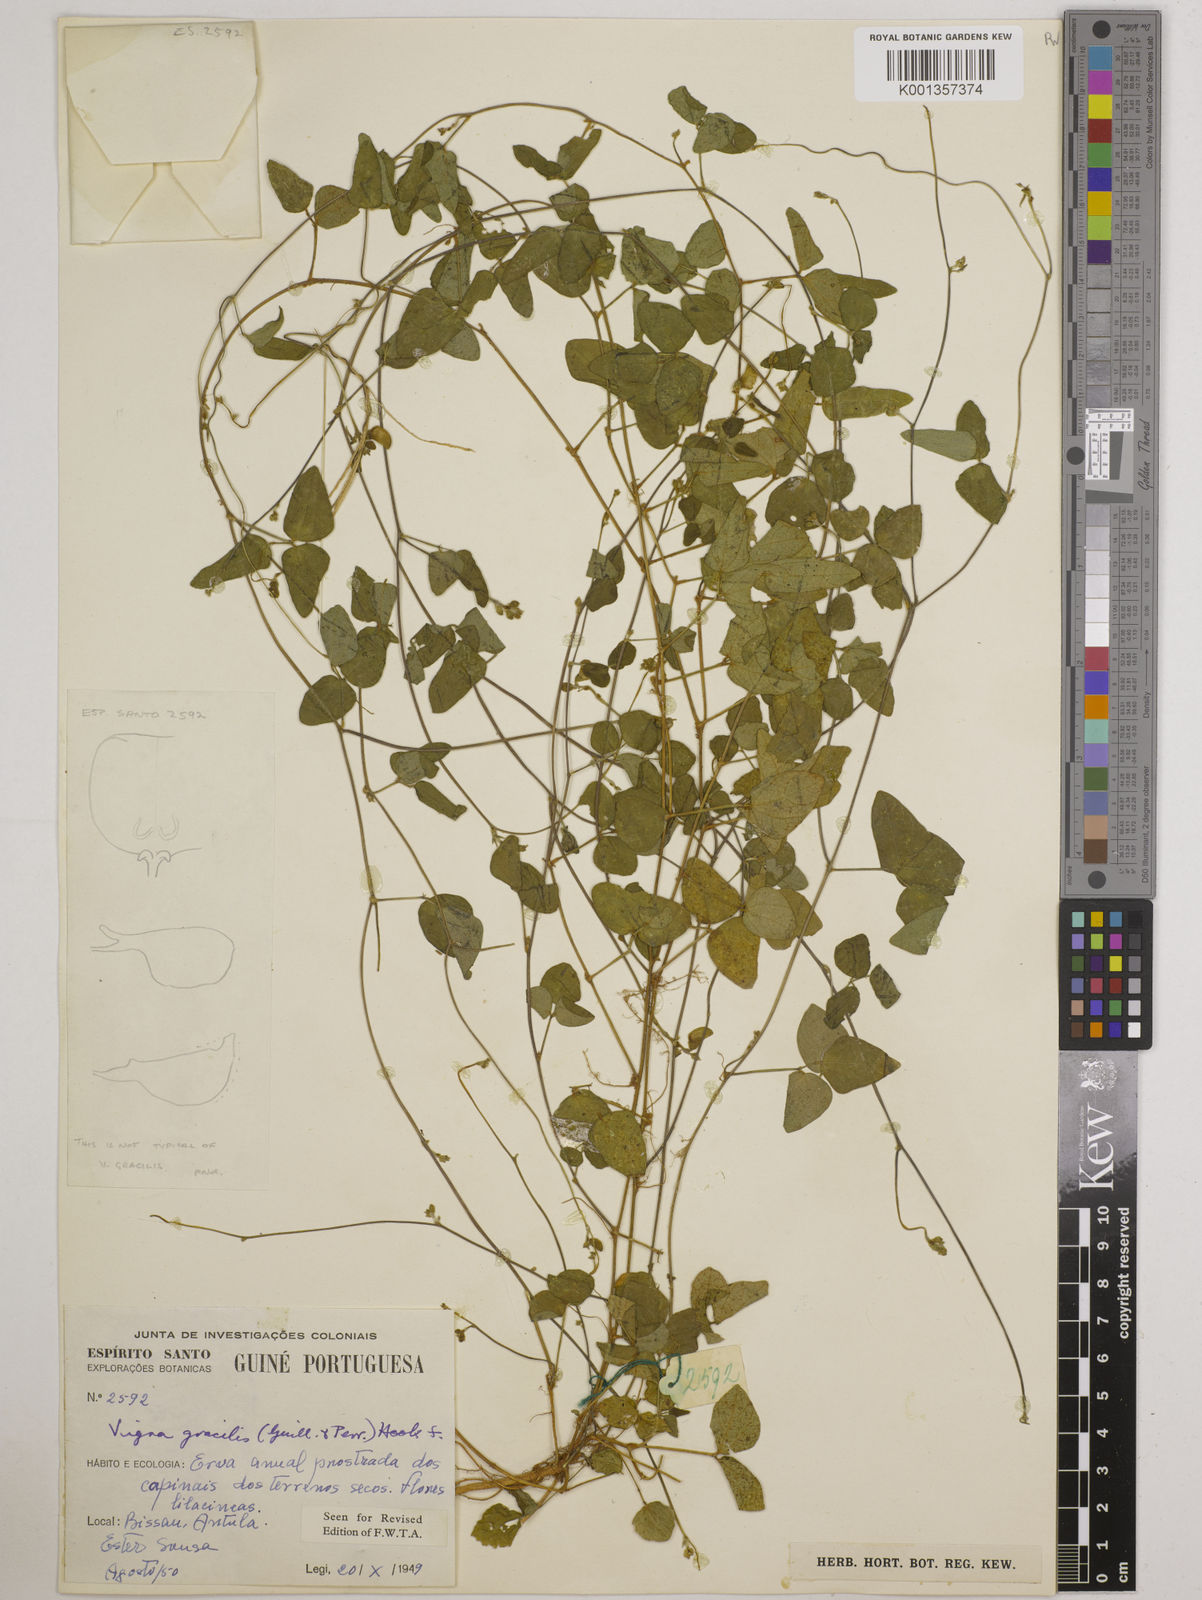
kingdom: Plantae
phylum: Tracheophyta
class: Magnoliopsida
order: Fabales
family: Fabaceae
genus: Vigna
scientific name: Vigna gracilis
